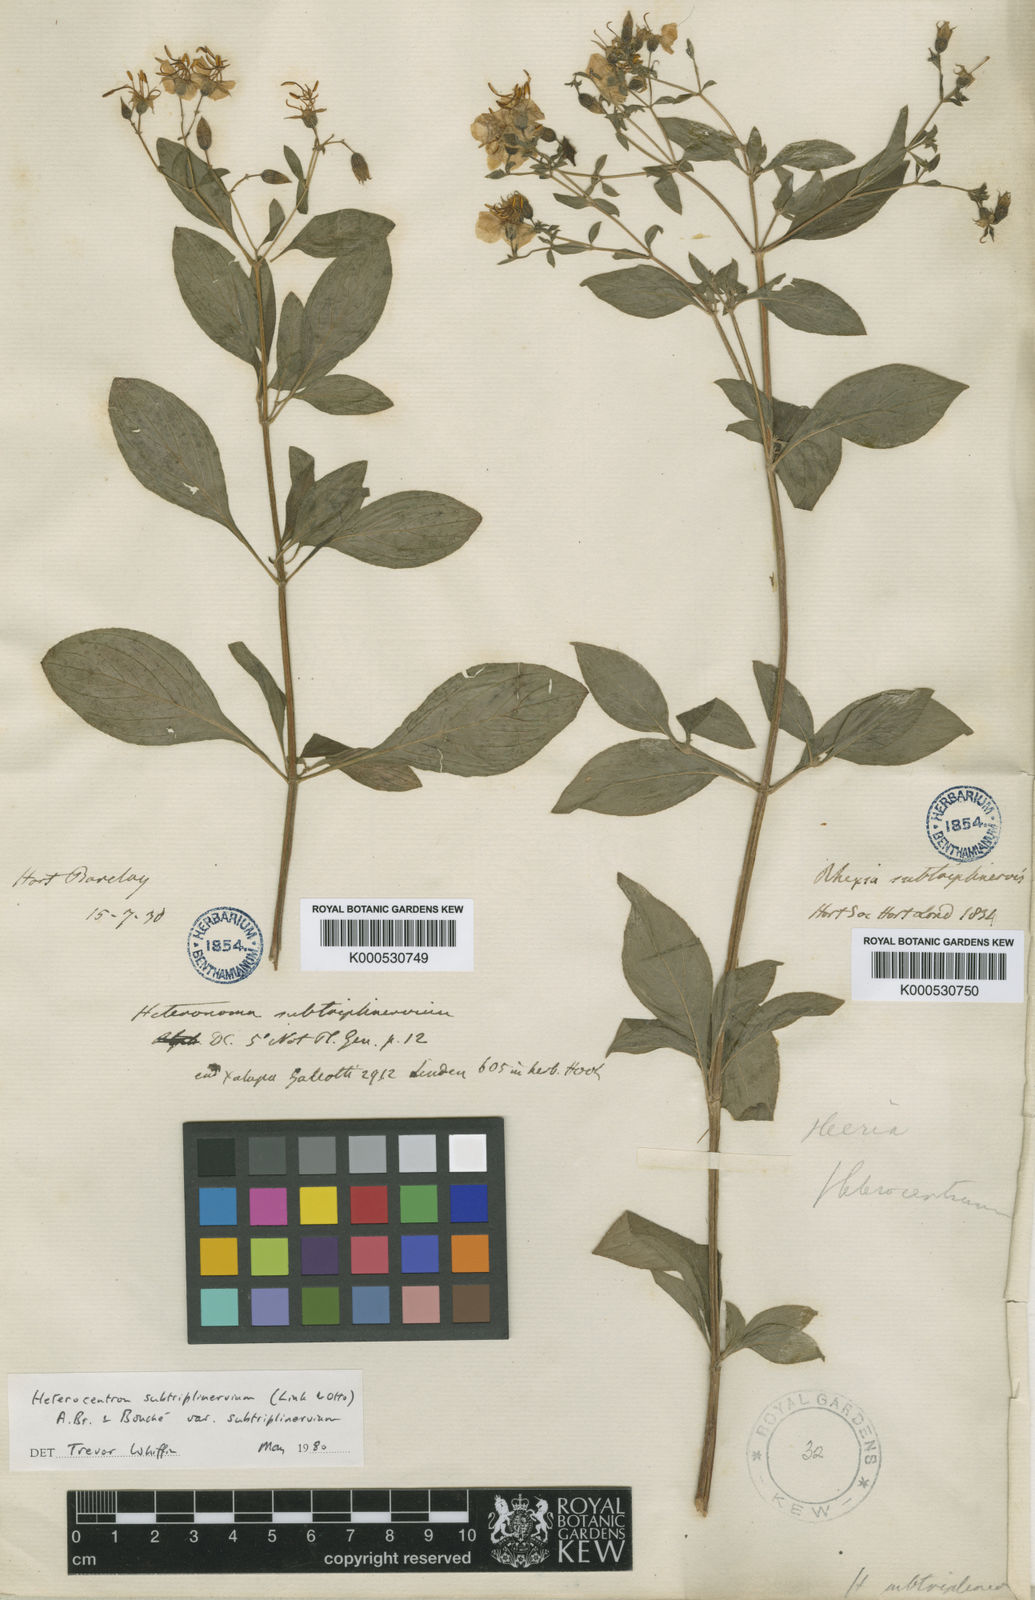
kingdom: Plantae
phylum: Tracheophyta
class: Magnoliopsida
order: Myrtales
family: Melastomataceae
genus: Heterocentron
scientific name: Heterocentron subtriplinervium
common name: Pearl flower
